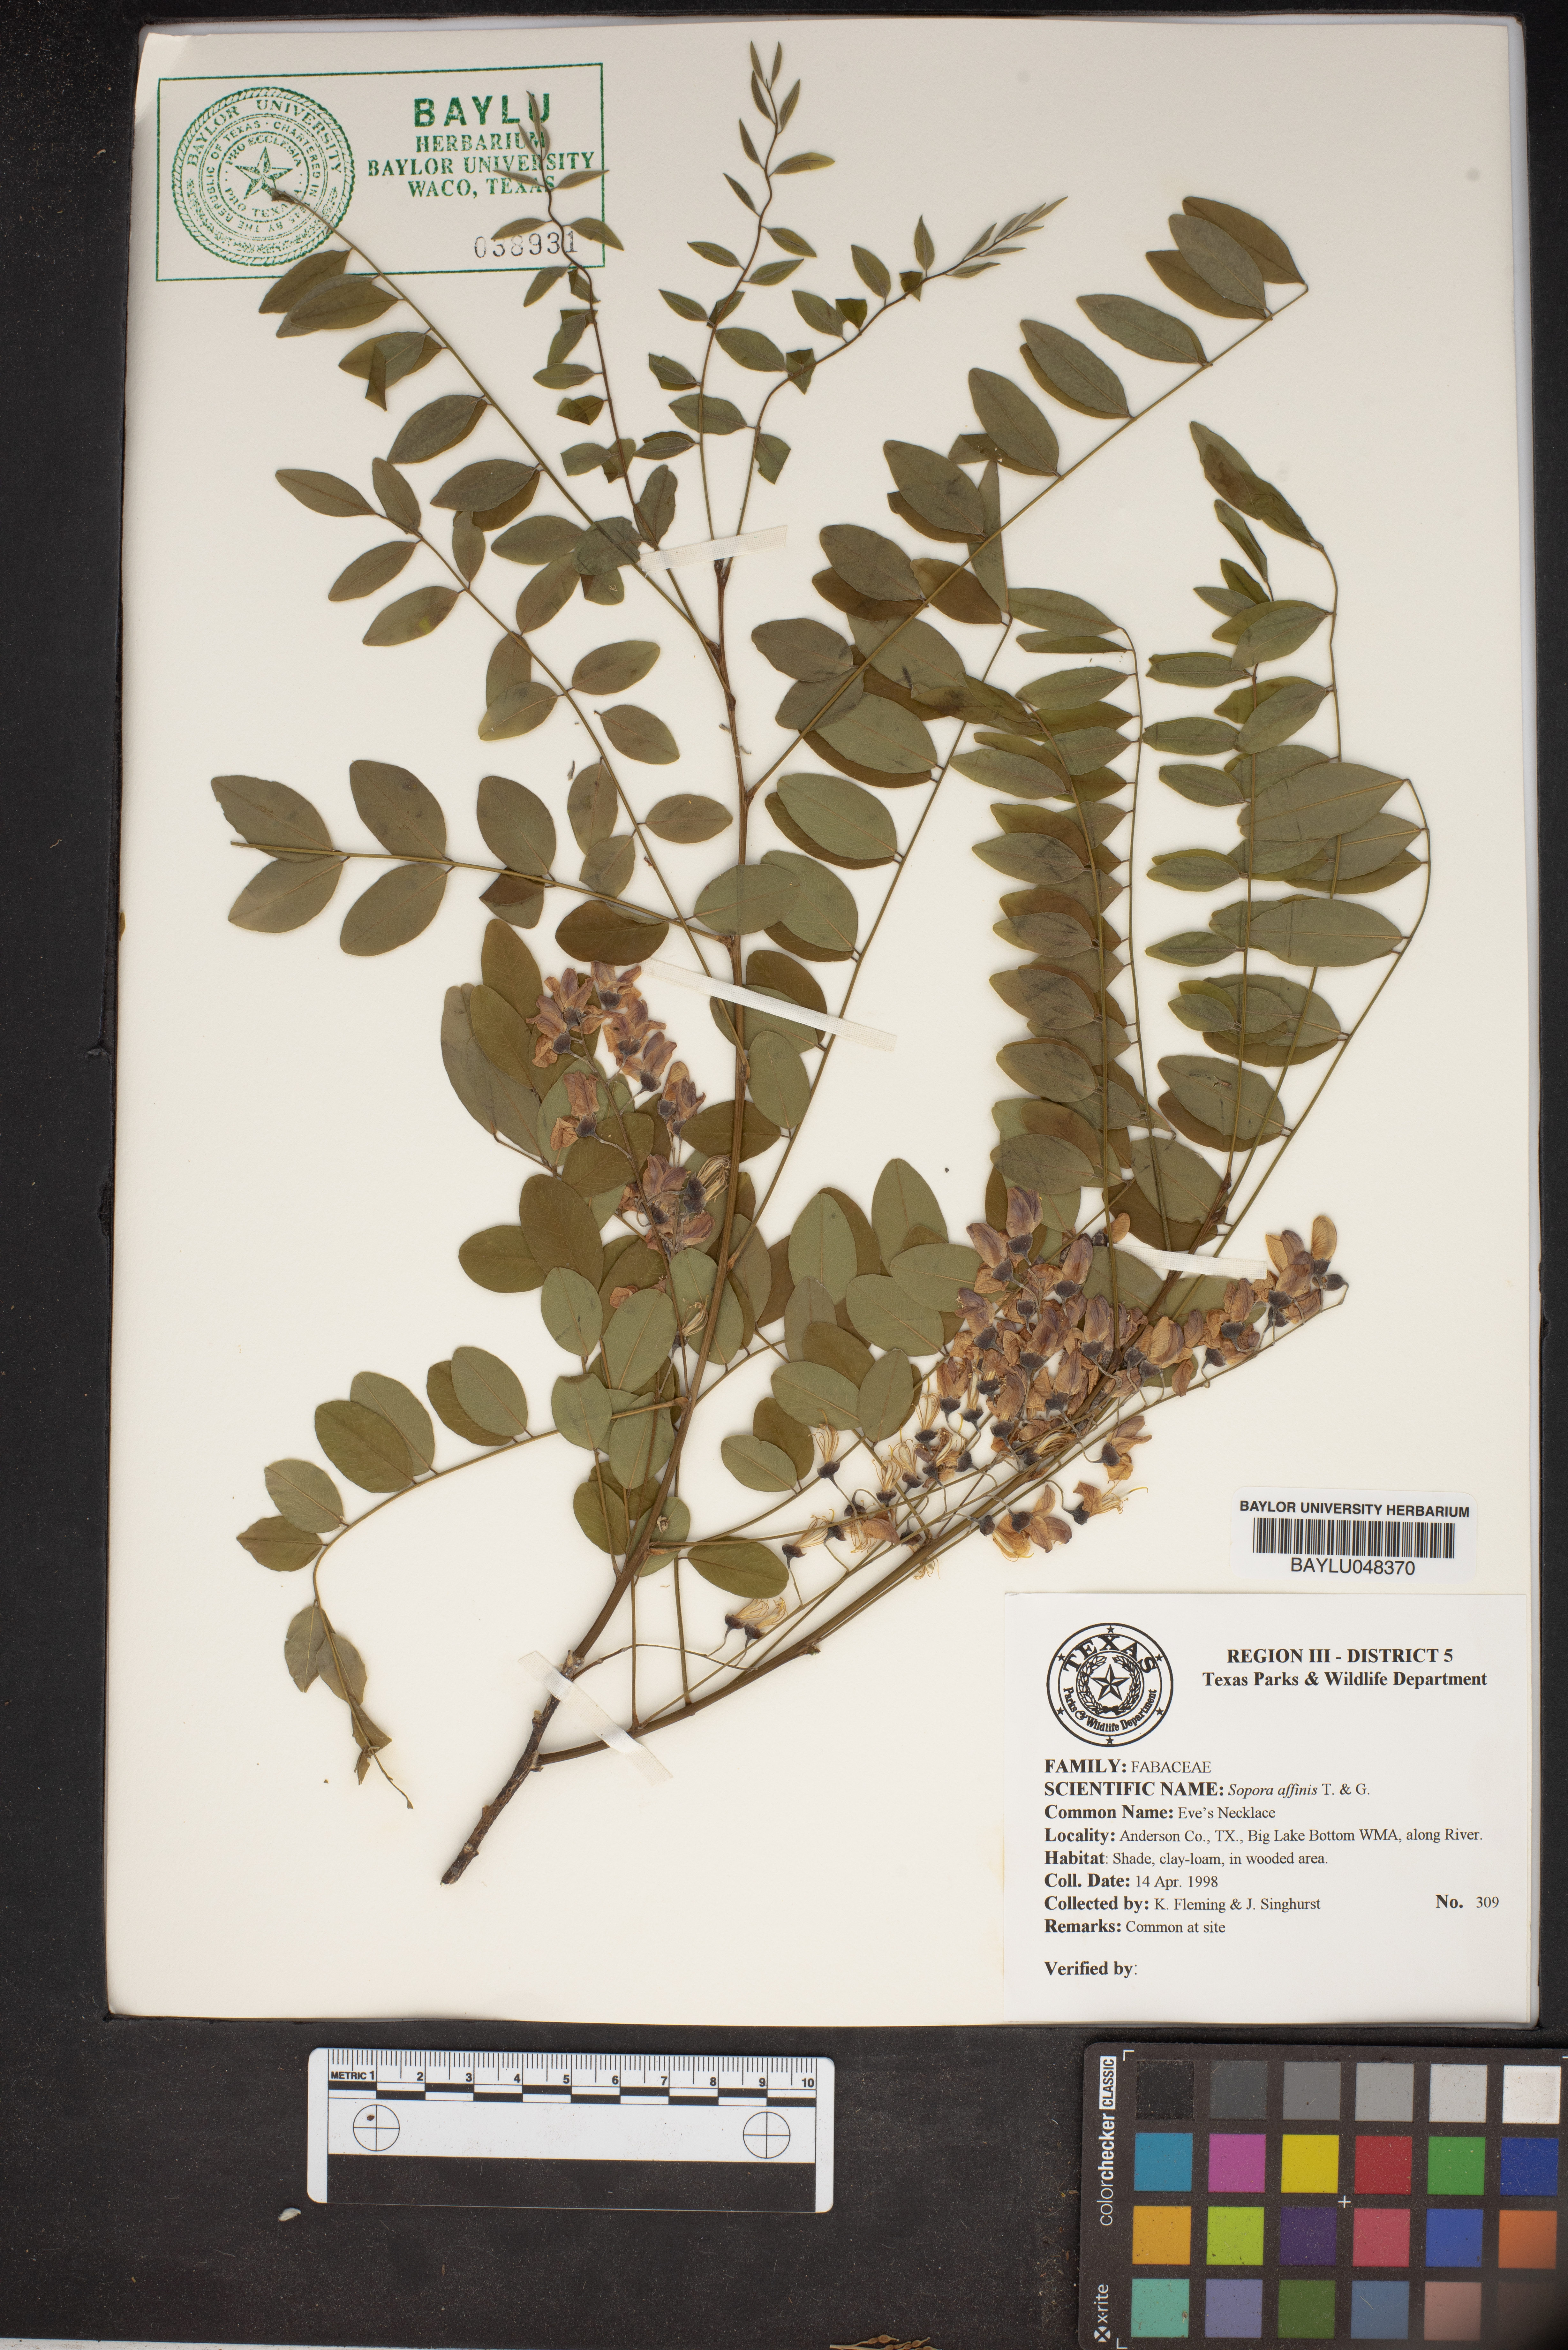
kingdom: Plantae
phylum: Tracheophyta
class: Magnoliopsida
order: Fabales
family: Fabaceae
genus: Styphnolobium
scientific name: Styphnolobium affine
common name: Texas sophora
